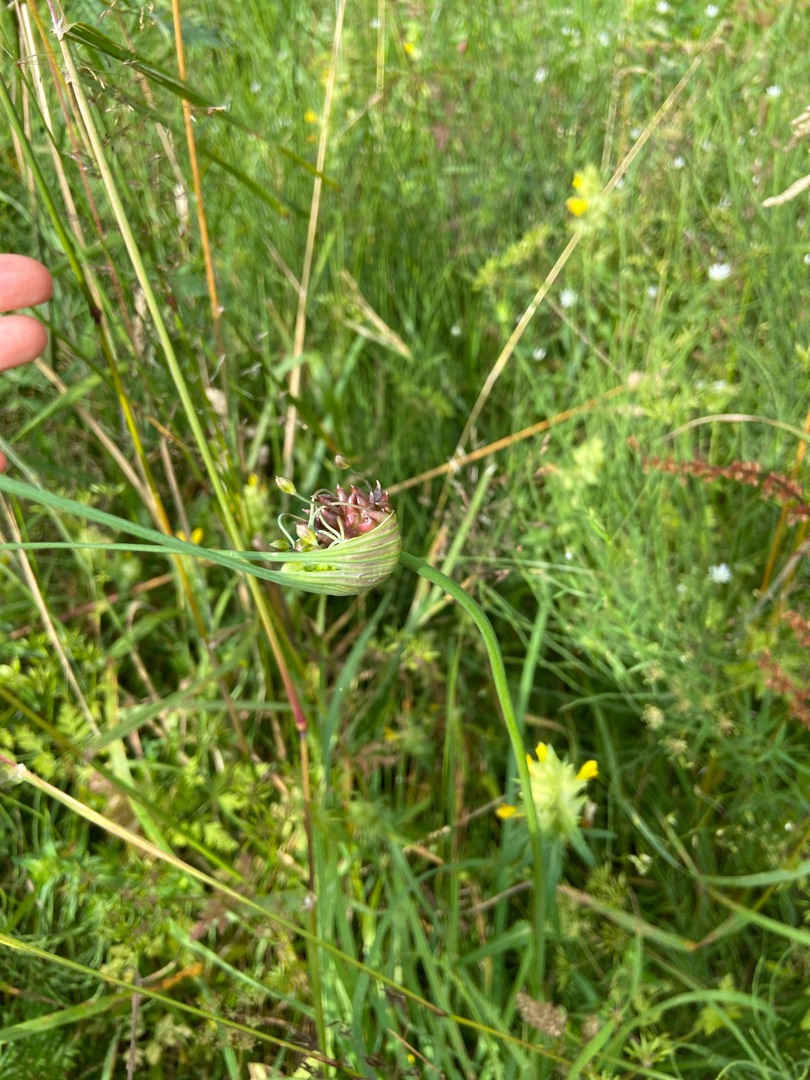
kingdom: Plantae
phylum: Tracheophyta
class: Liliopsida
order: Asparagales
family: Amaryllidaceae
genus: Allium
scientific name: Allium oleraceum
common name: Vild løg
